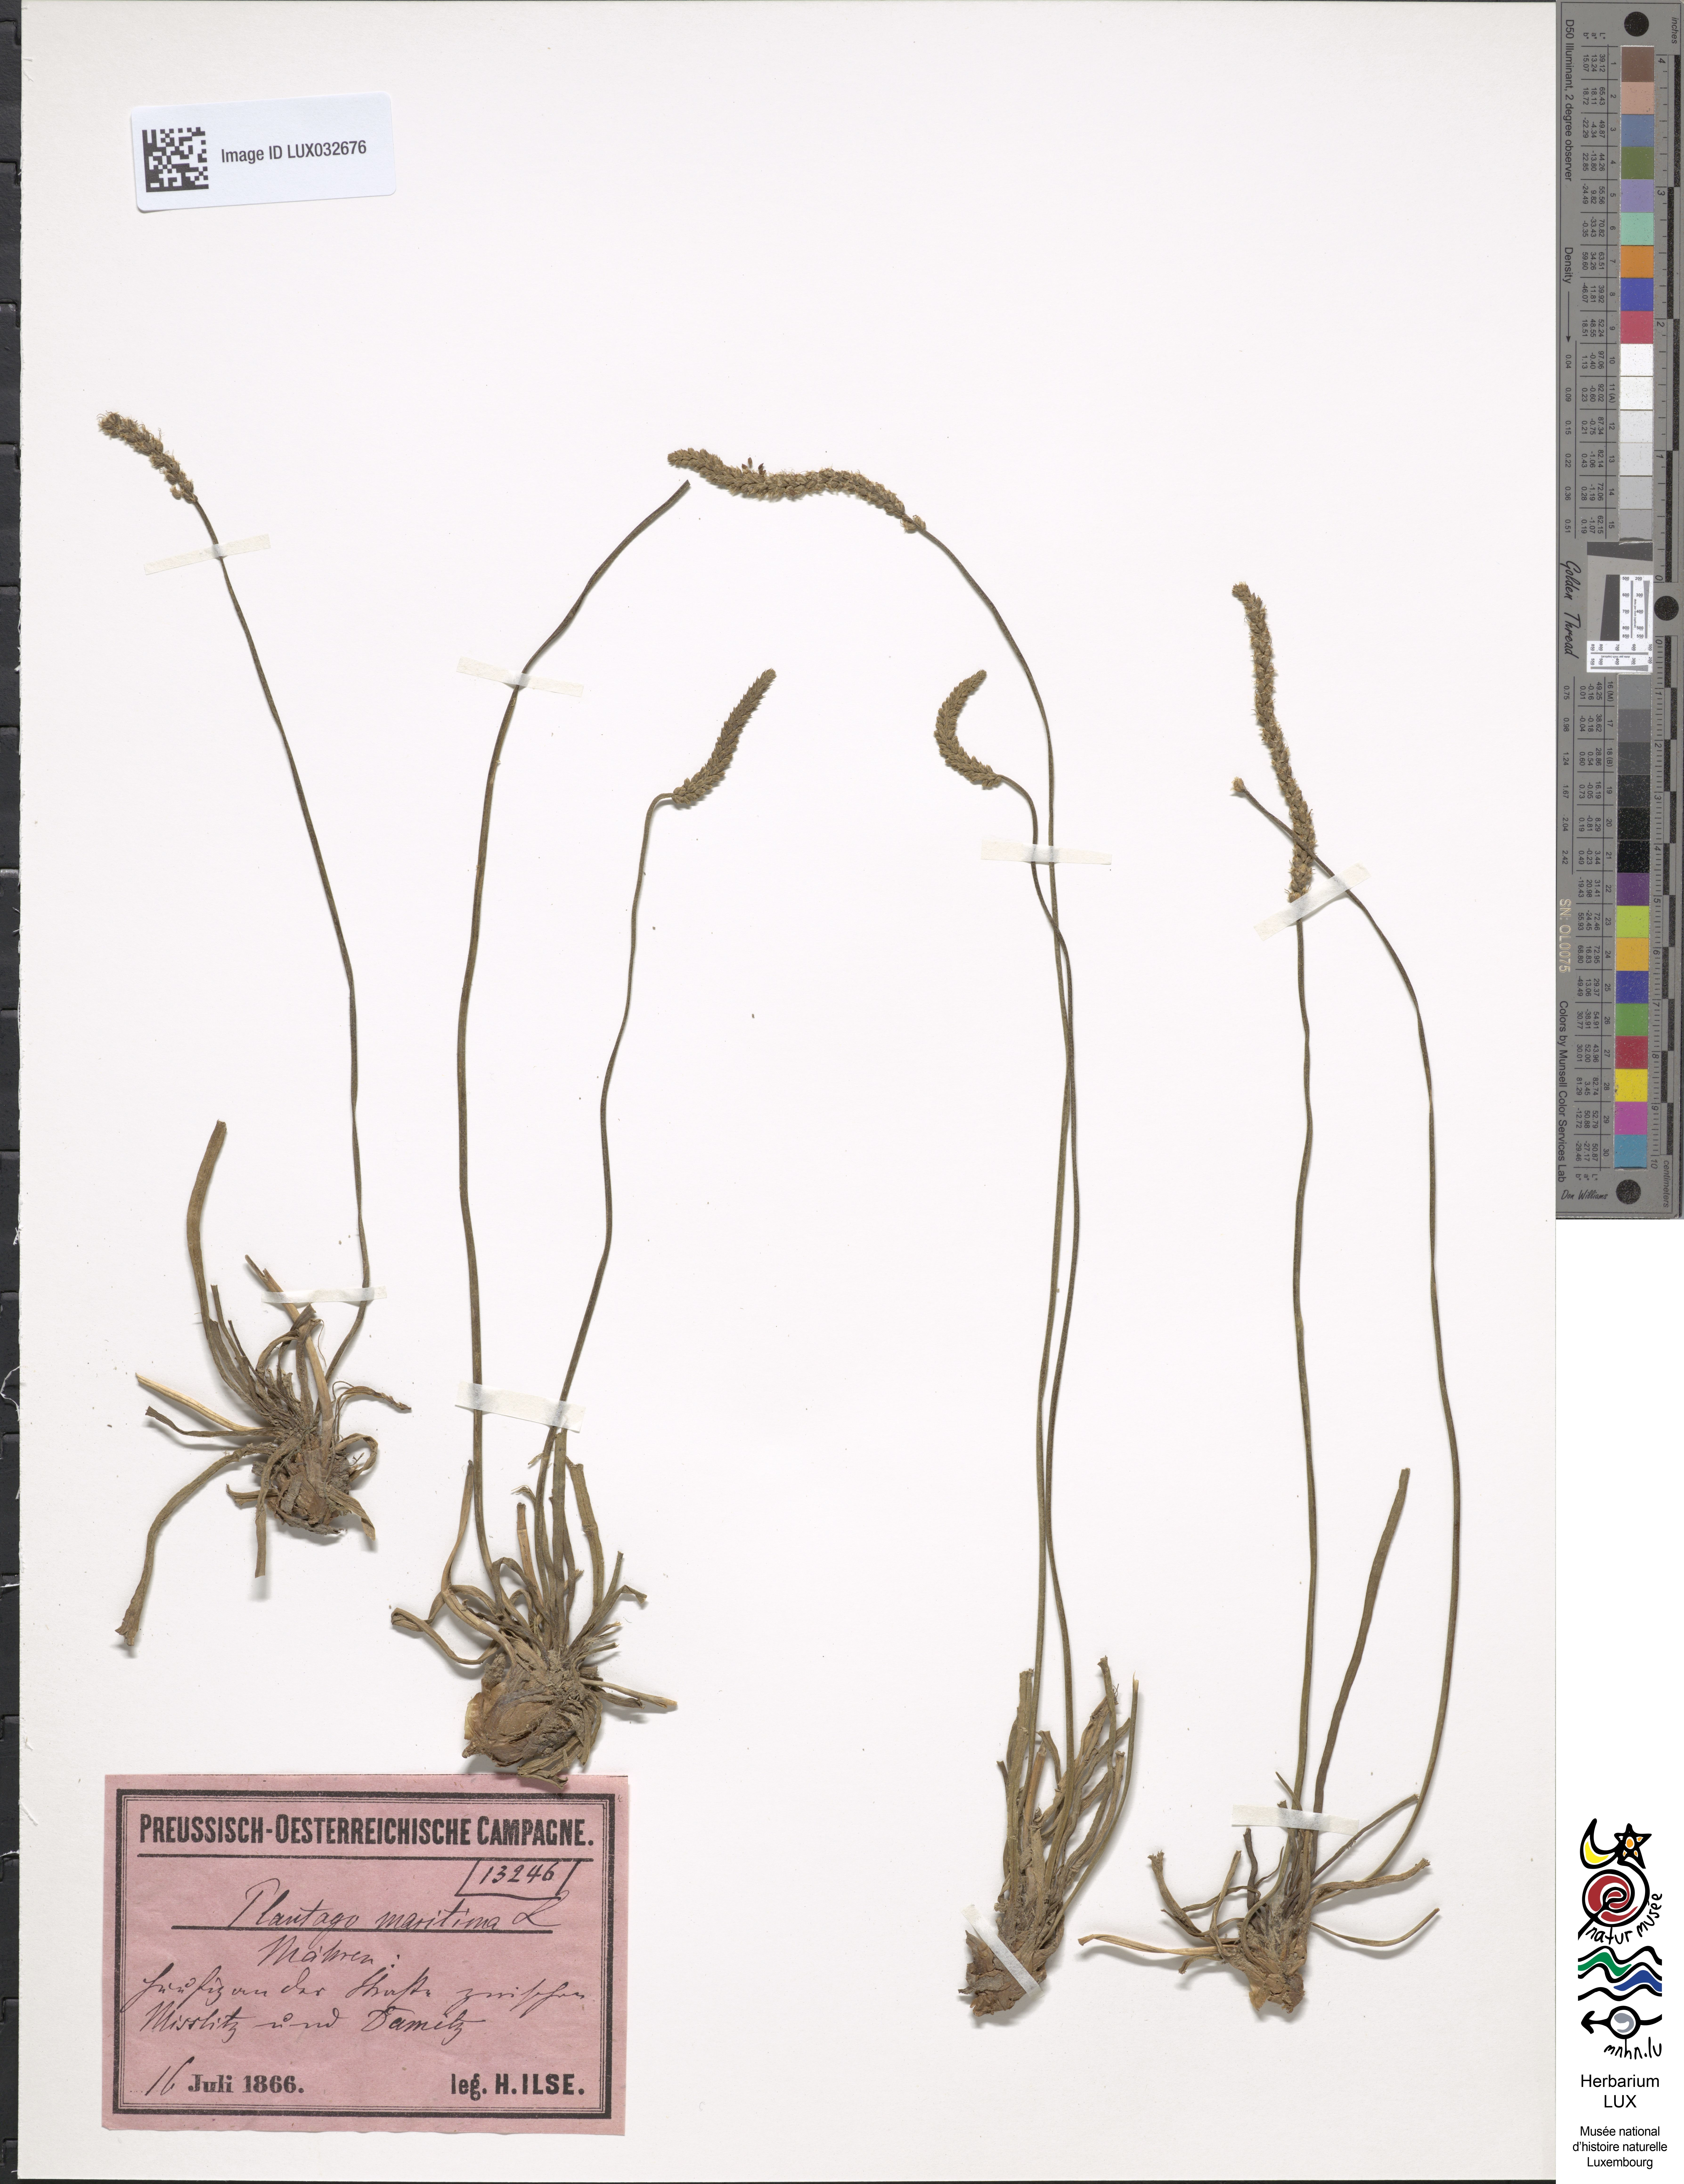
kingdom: Plantae
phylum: Tracheophyta
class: Magnoliopsida
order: Lamiales
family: Plantaginaceae
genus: Plantago
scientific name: Plantago maritima
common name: Sea plantain
